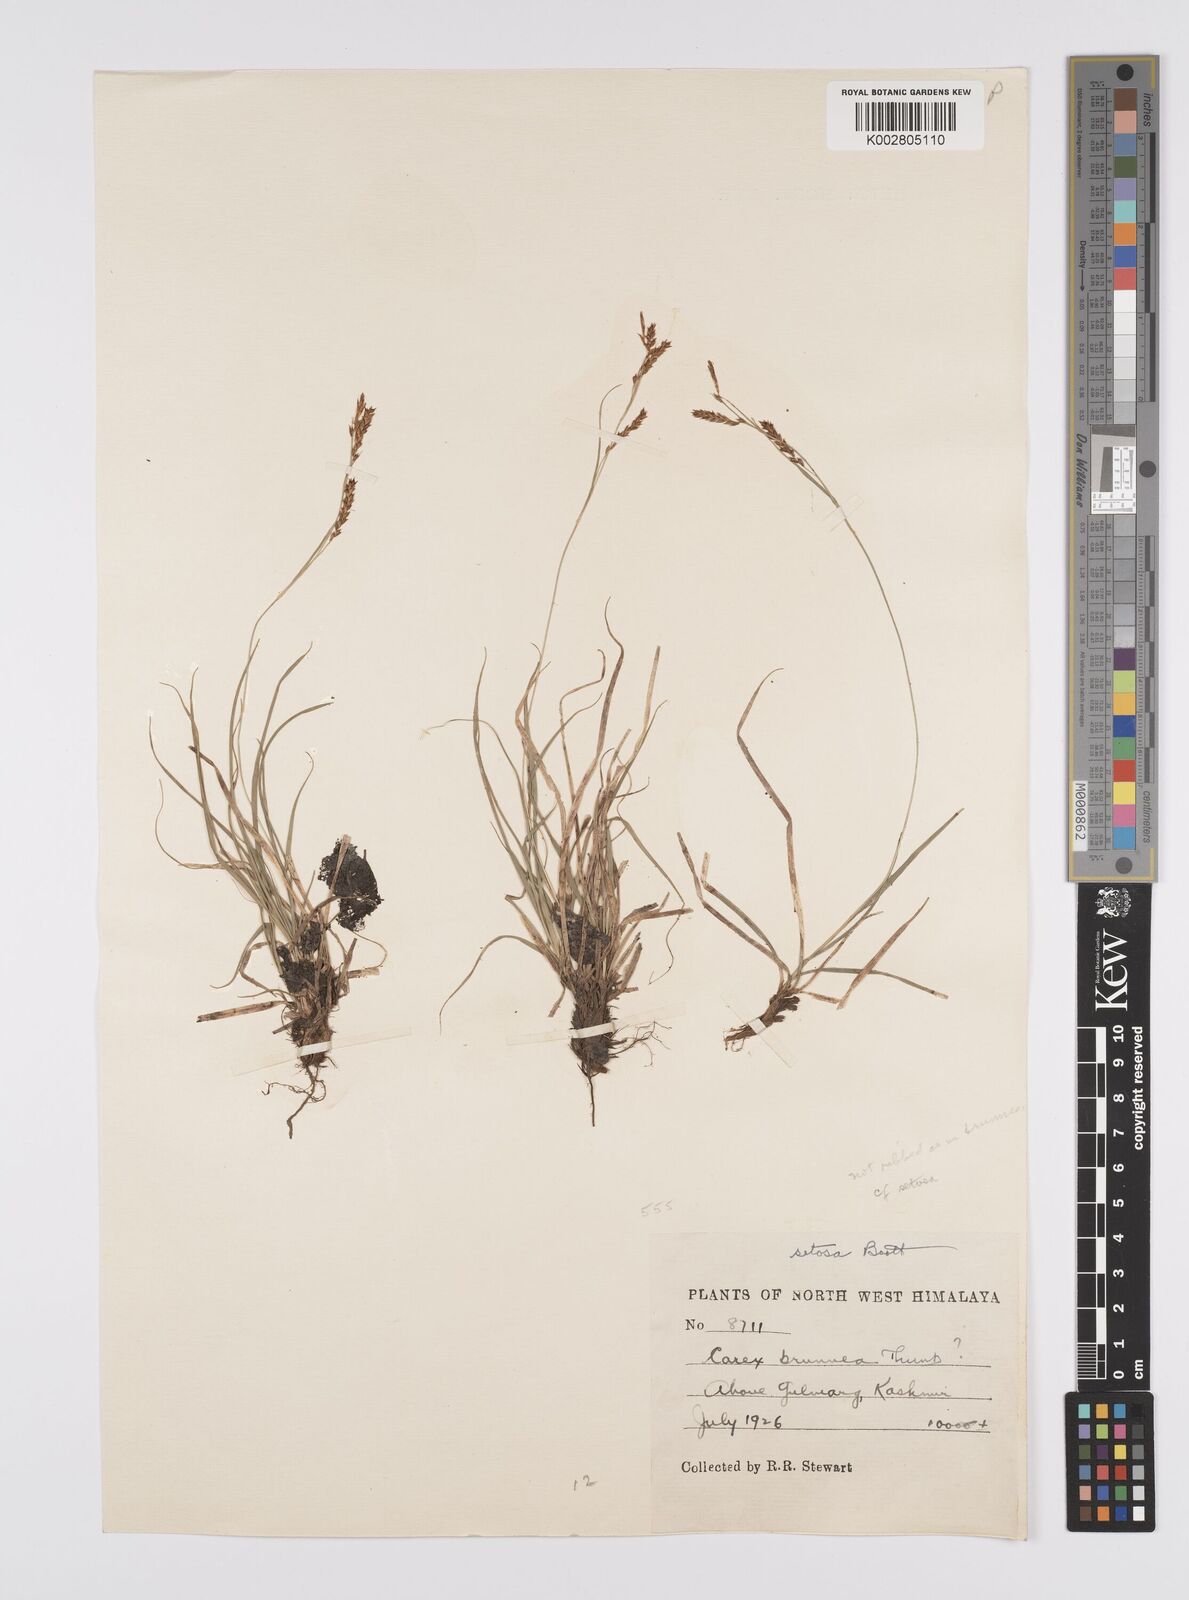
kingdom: Plantae
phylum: Tracheophyta
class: Liliopsida
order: Poales
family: Cyperaceae
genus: Carex
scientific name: Carex setosa
